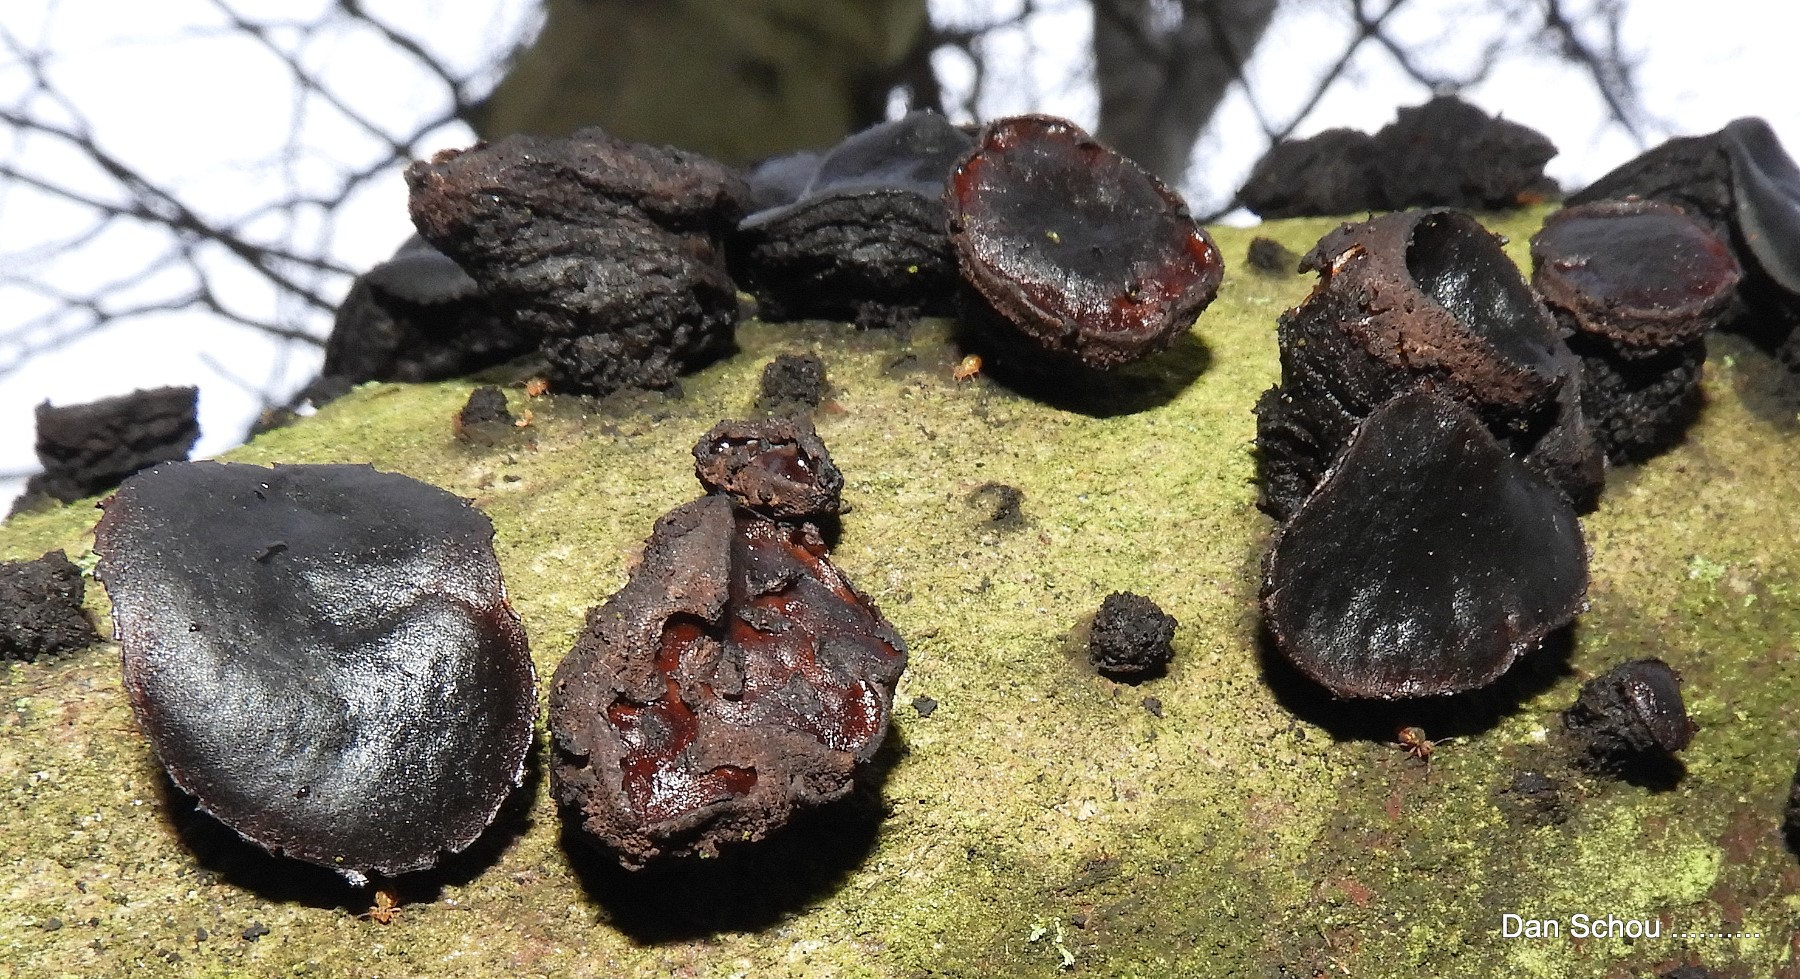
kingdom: Fungi
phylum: Ascomycota
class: Leotiomycetes
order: Phacidiales
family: Phacidiaceae
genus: Bulgaria
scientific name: Bulgaria inquinans
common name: afsmittende topsvamp
